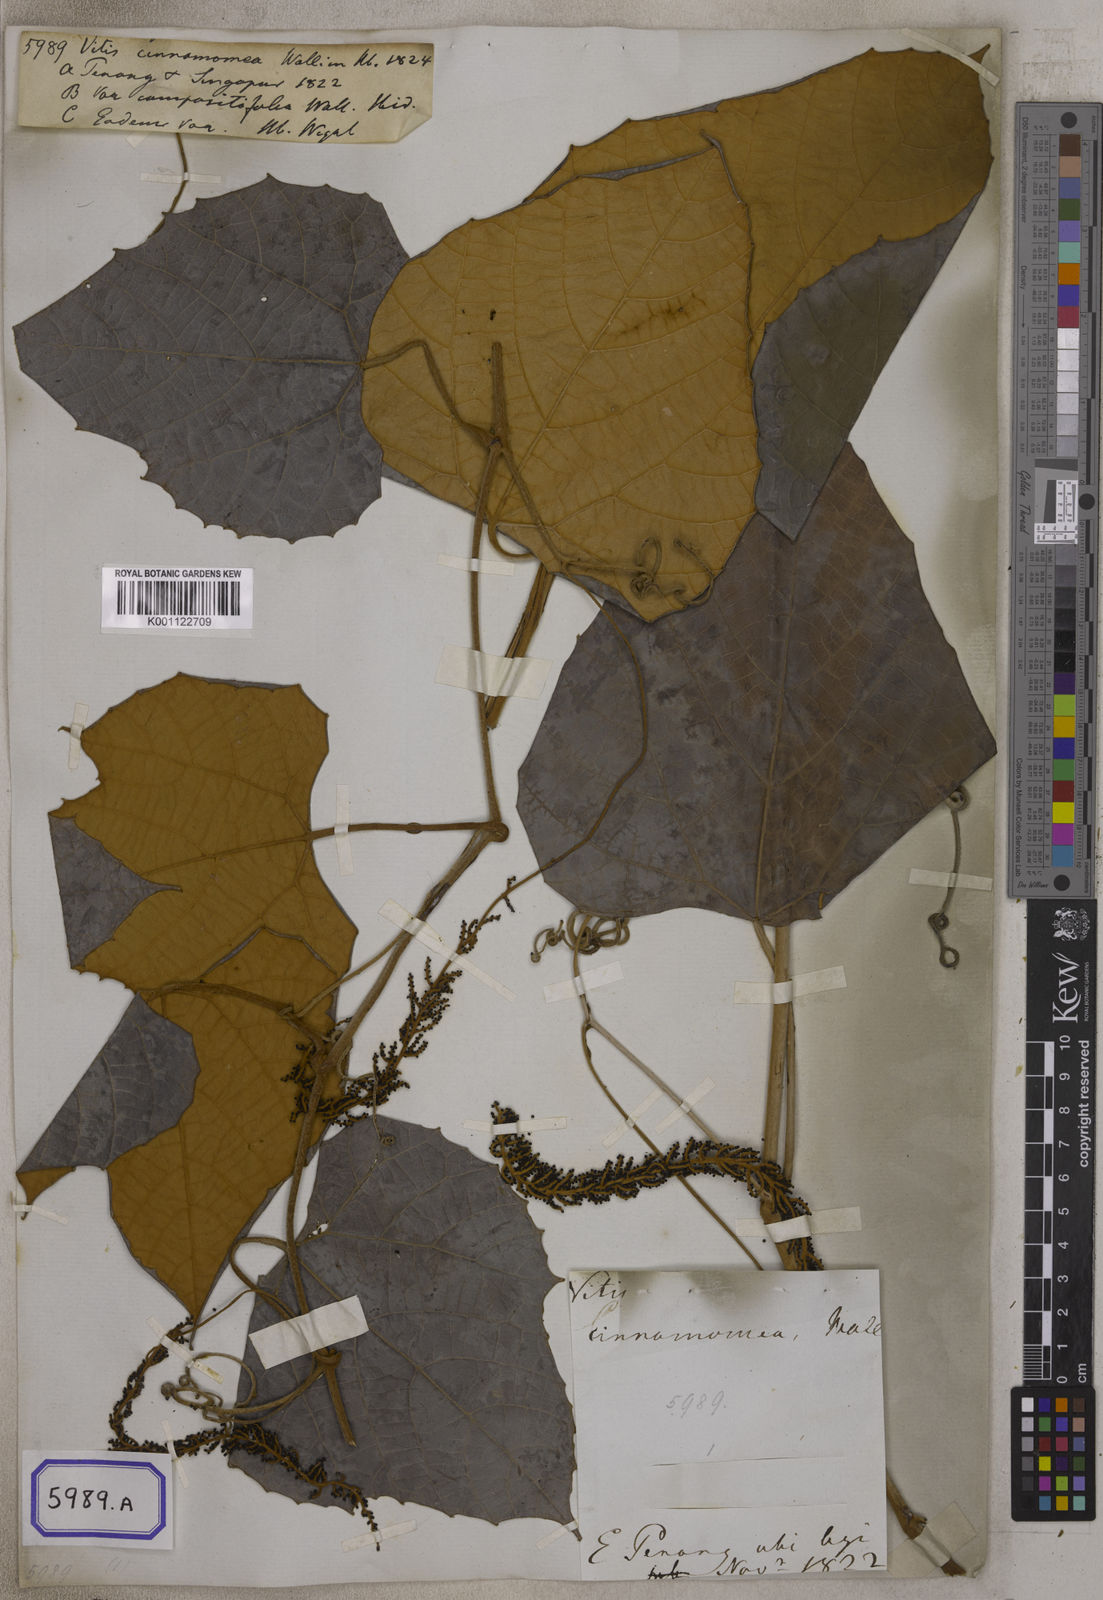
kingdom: Plantae
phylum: Tracheophyta
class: Magnoliopsida
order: Vitales
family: Vitaceae
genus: Ampelocissus
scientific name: Ampelocissus cinnamomea
